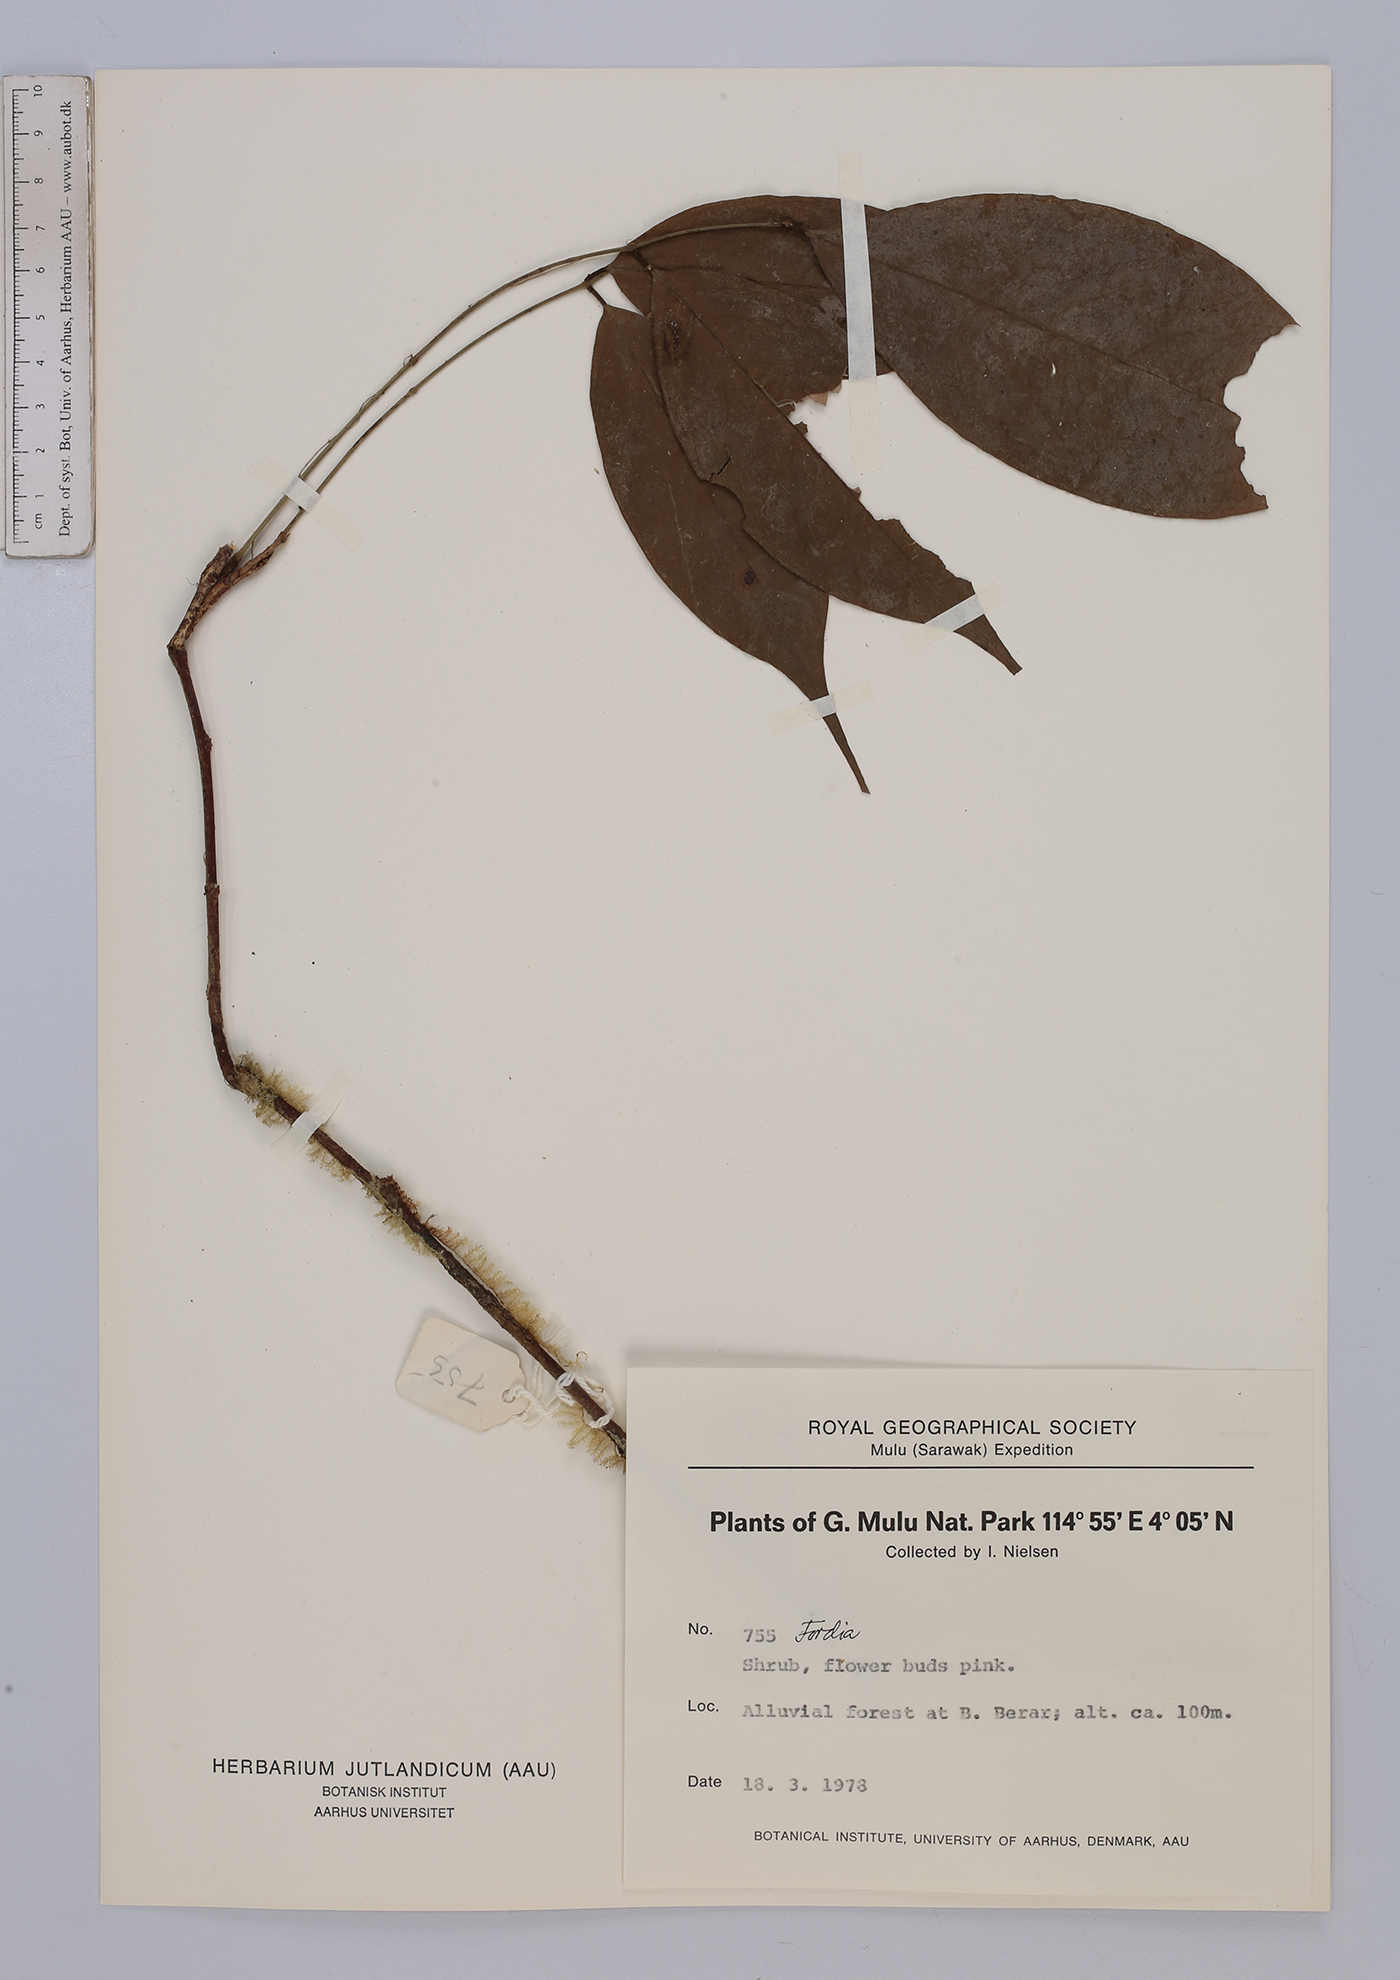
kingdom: Plantae
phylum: Tracheophyta
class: Magnoliopsida
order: Fabales
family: Fabaceae
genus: Fordia
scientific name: Fordia
